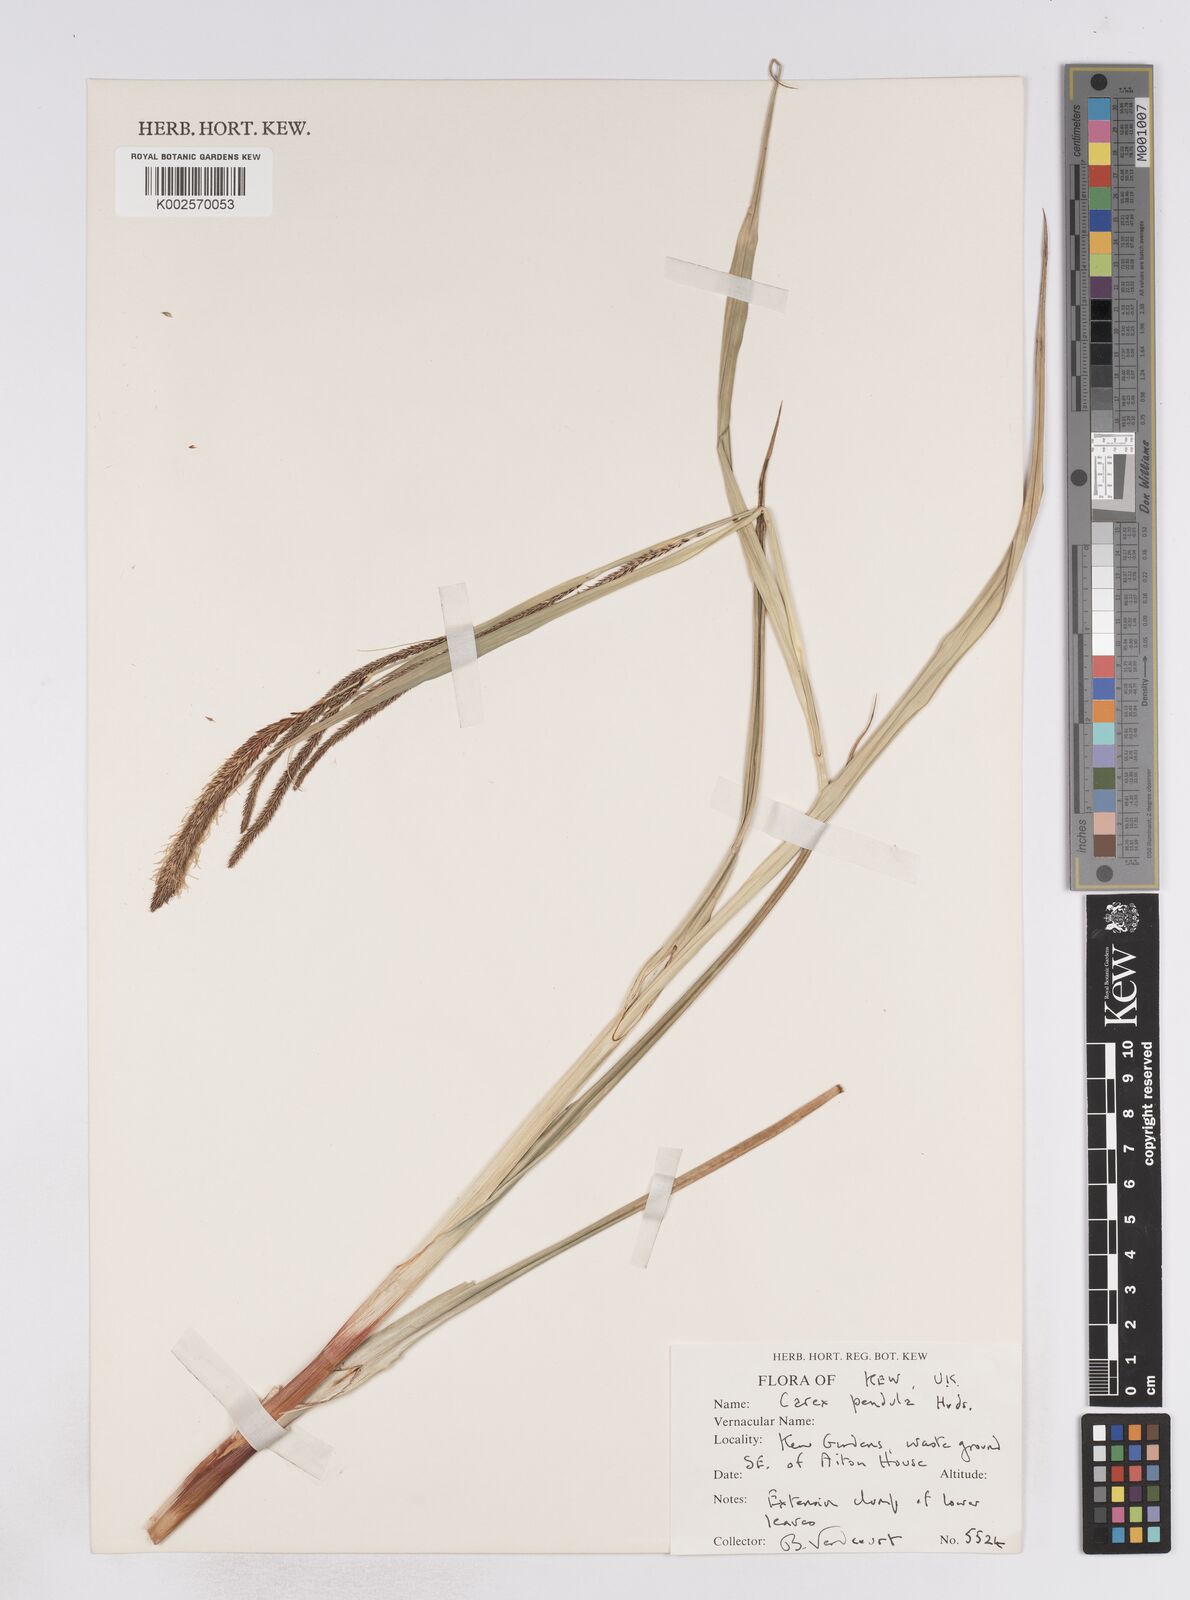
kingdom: Plantae
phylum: Tracheophyta
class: Liliopsida
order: Poales
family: Cyperaceae
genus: Carex
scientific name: Carex pendula
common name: Pendulous sedge
